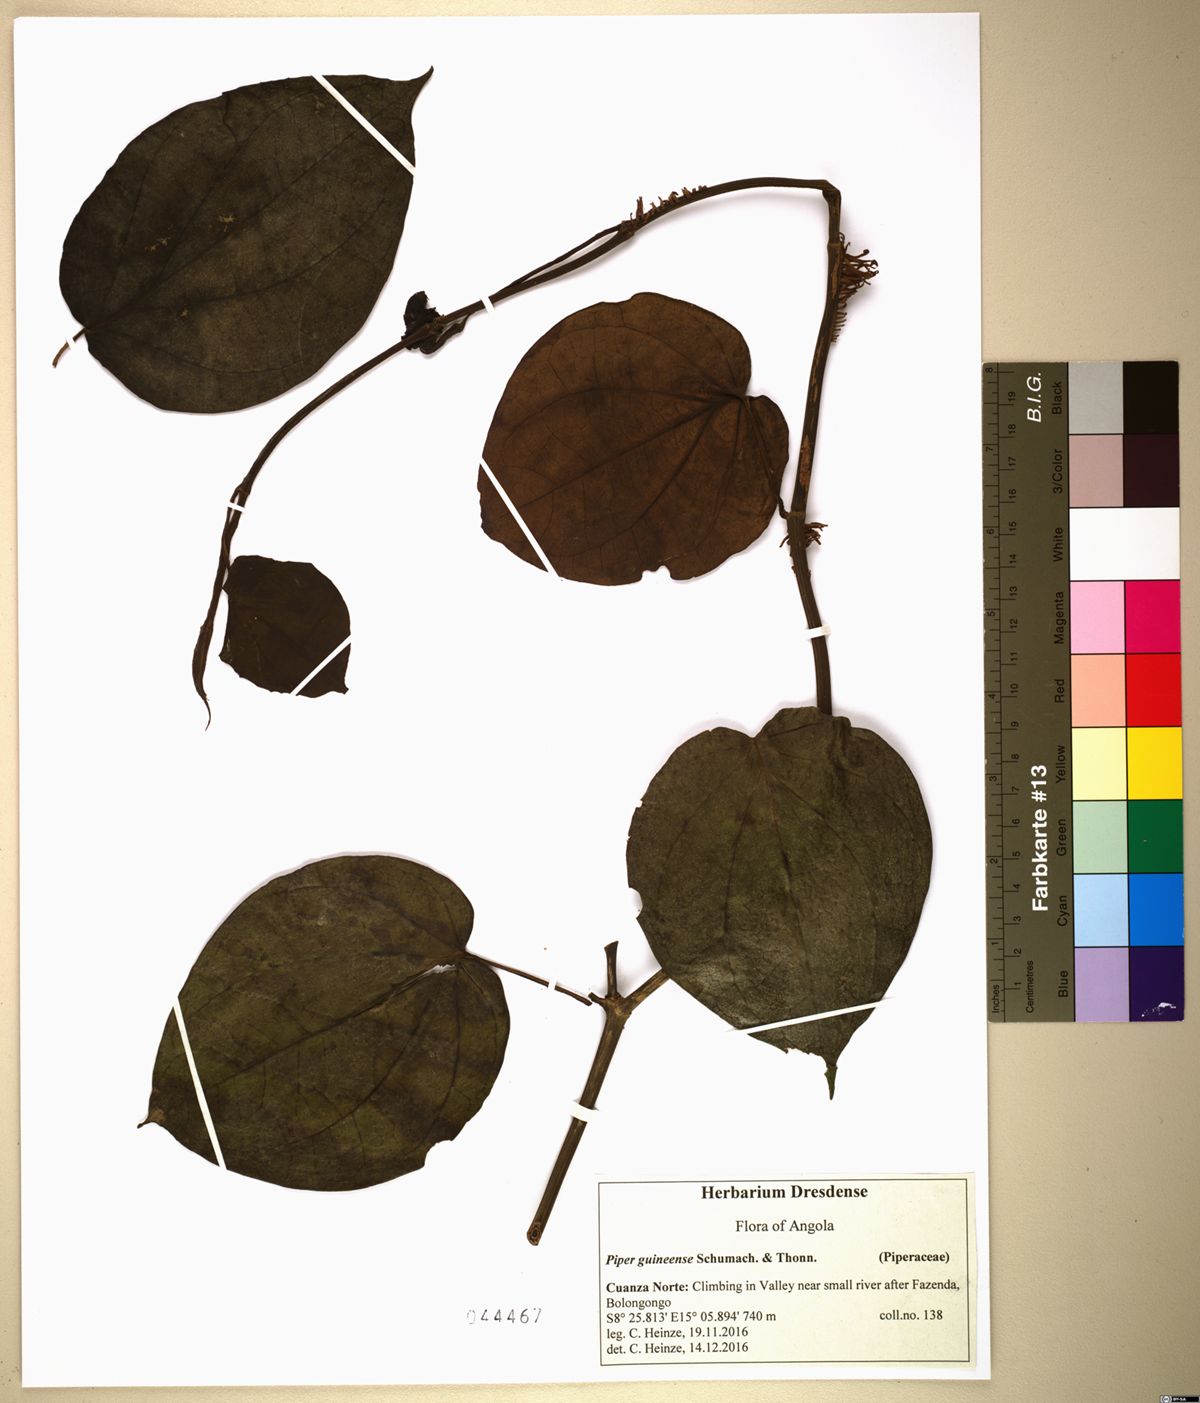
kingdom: Plantae
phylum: Tracheophyta
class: Magnoliopsida
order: Piperales
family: Piperaceae
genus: Piper
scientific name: Piper guineense
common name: Benin pepper
